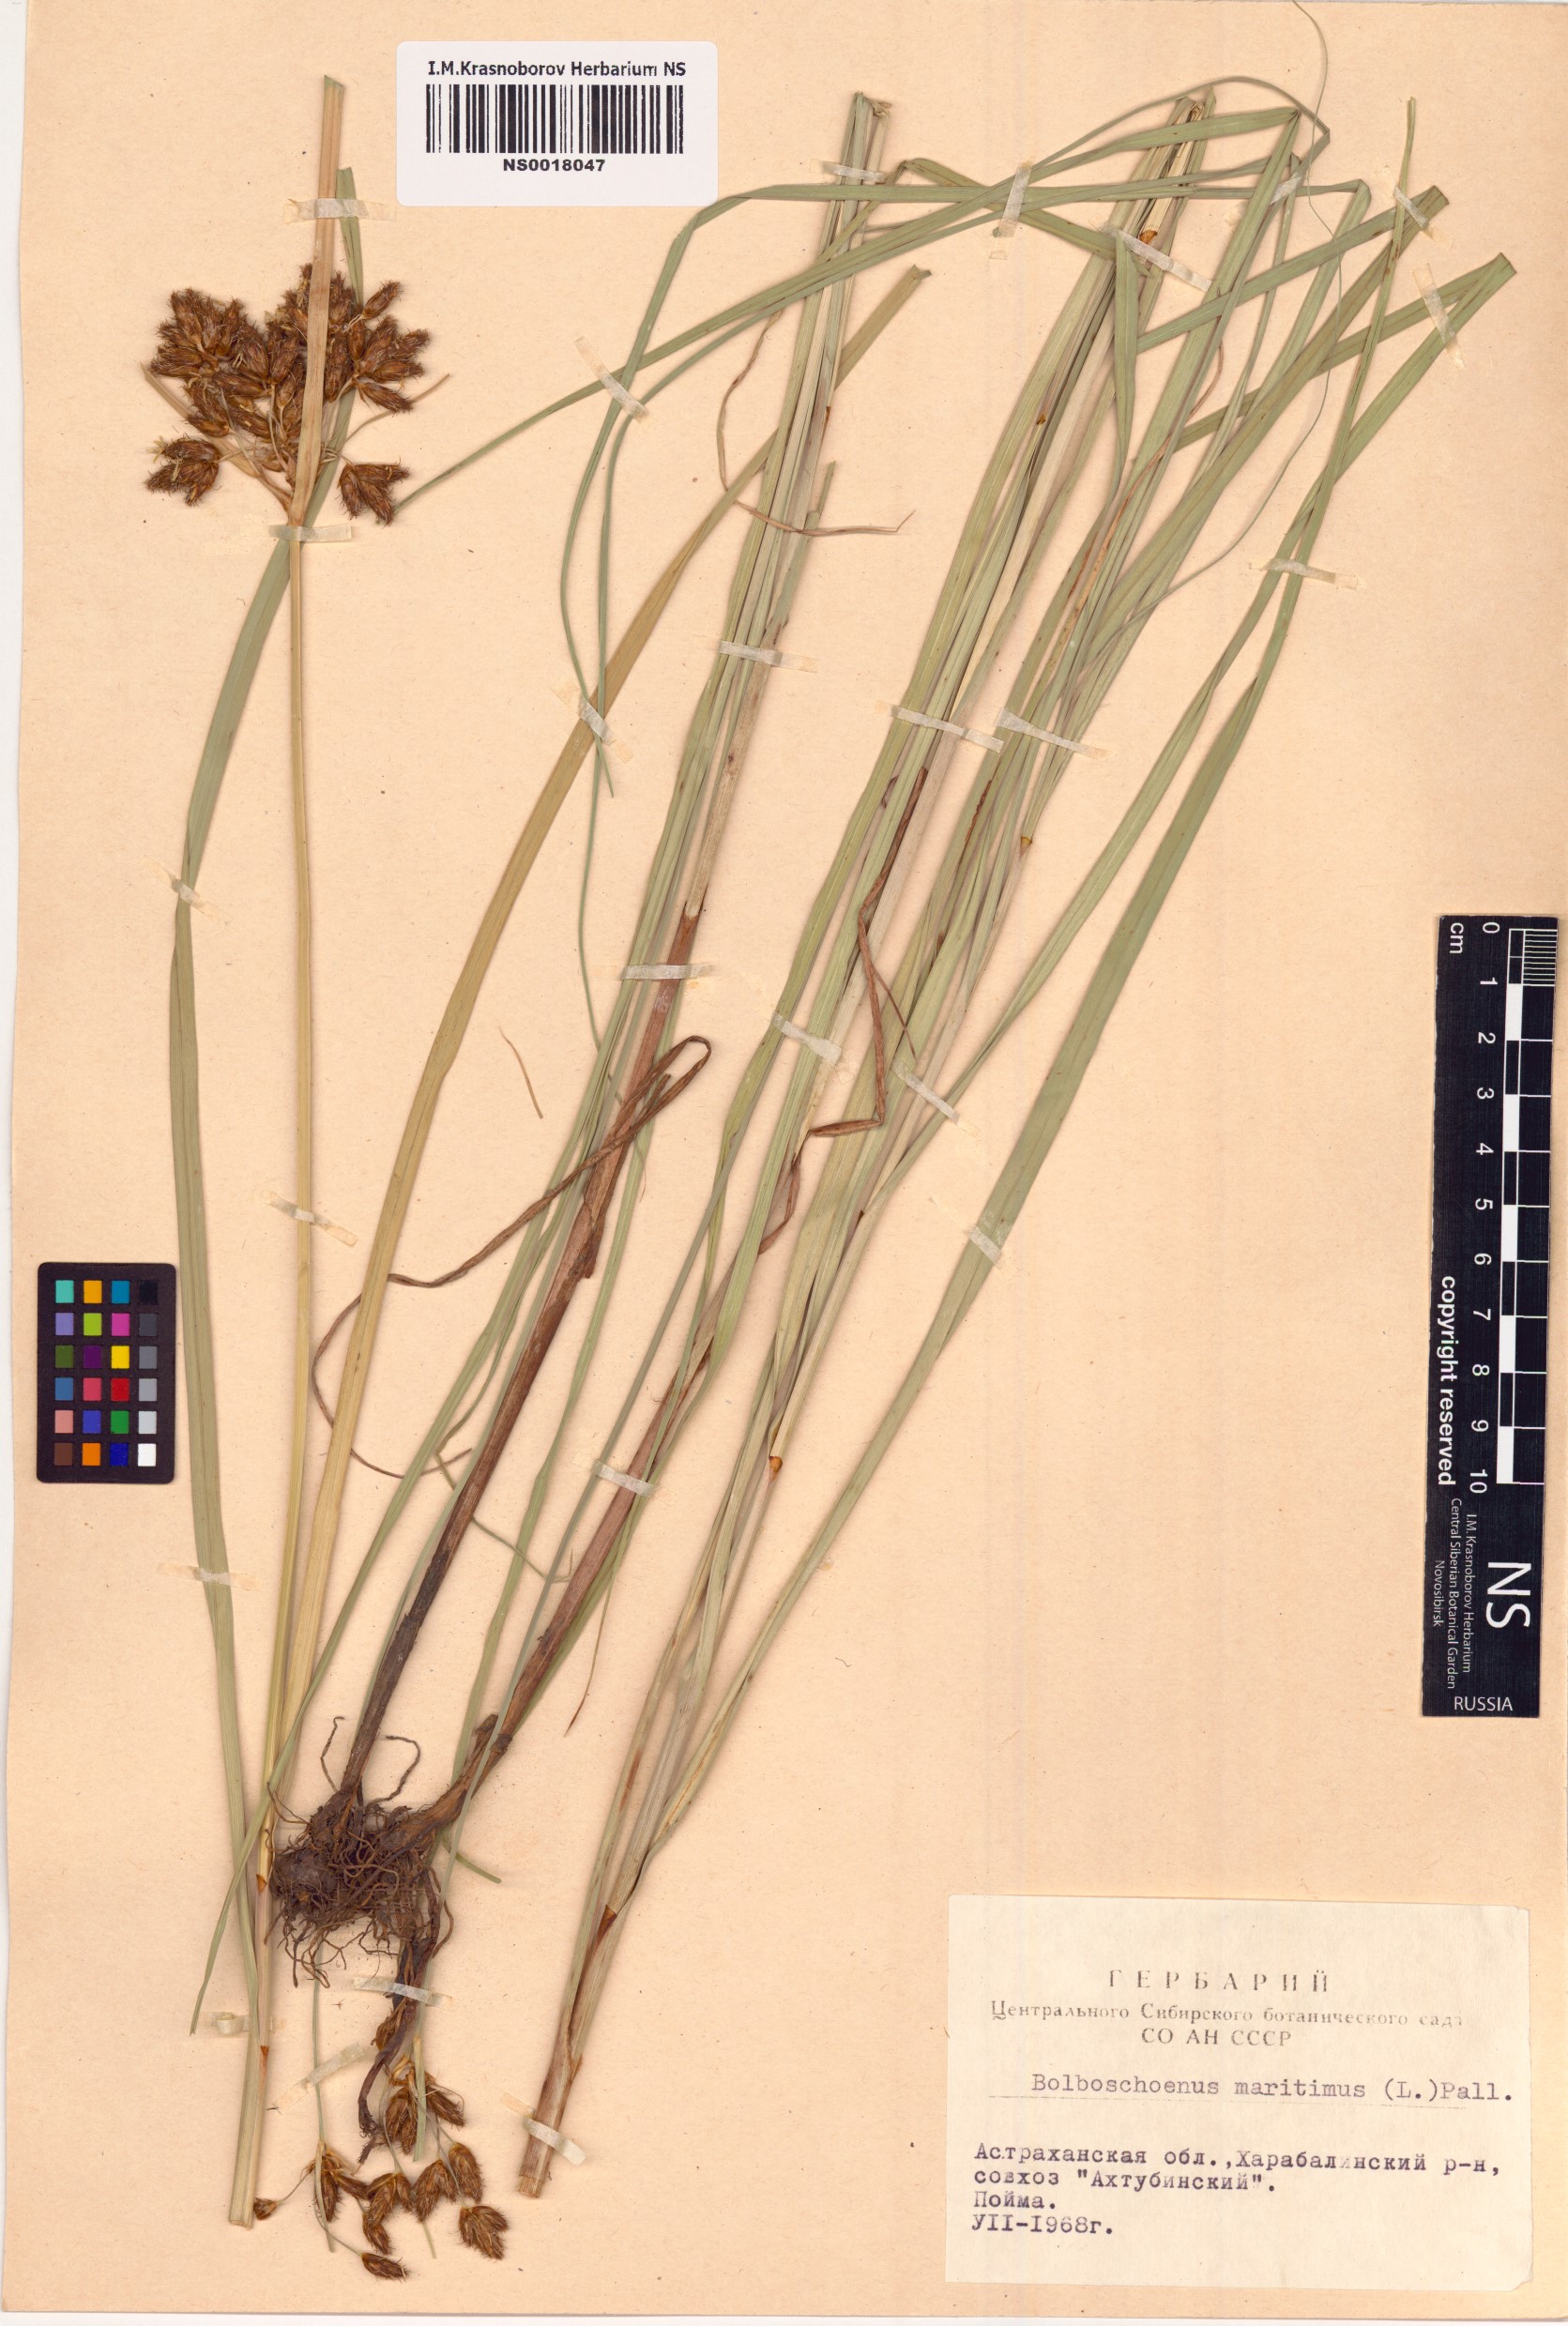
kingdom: Plantae
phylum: Tracheophyta
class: Liliopsida
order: Poales
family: Cyperaceae
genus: Bolboschoenus
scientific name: Bolboschoenus maritimus
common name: Sea club-rush
